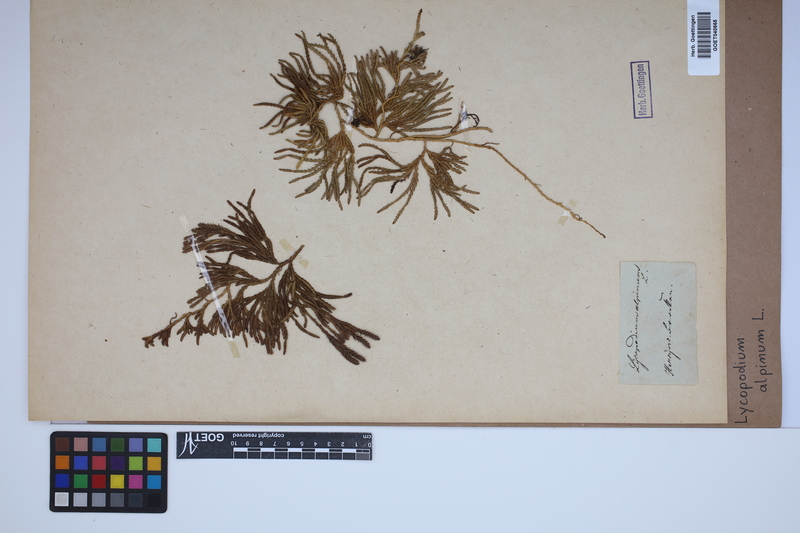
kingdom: Plantae
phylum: Tracheophyta
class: Lycopodiopsida
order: Lycopodiales
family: Lycopodiaceae
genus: Diphasiastrum
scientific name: Diphasiastrum alpinum
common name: Alpine clubmoss
